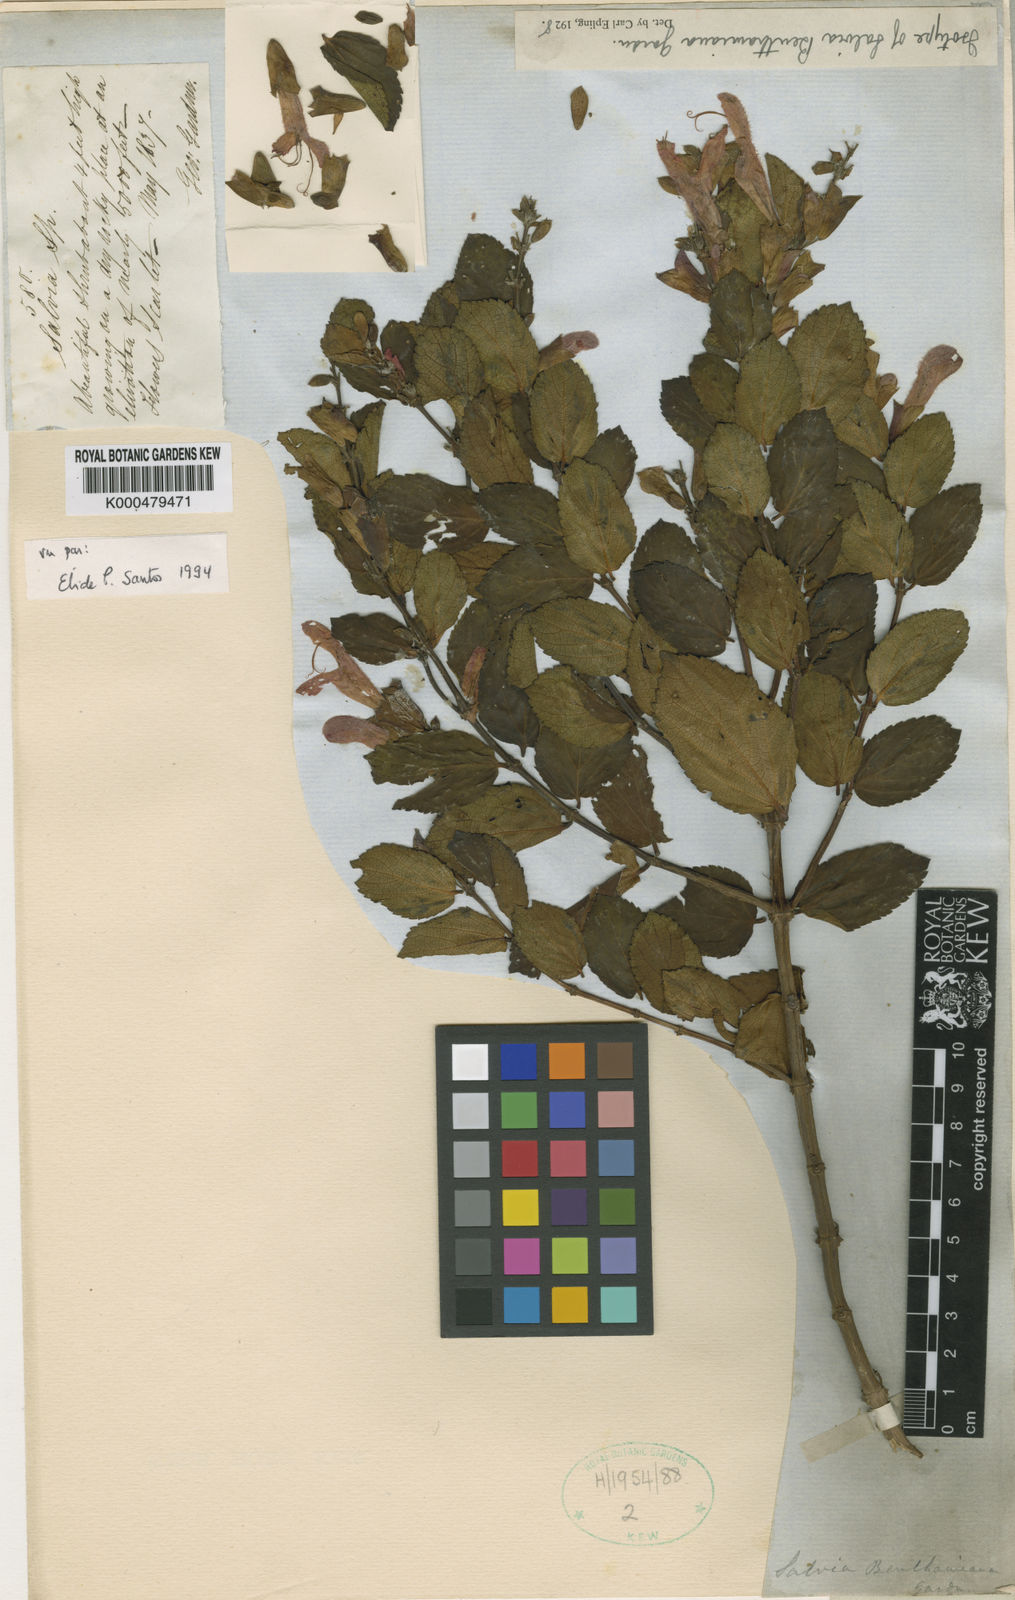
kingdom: Plantae
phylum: Tracheophyta
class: Magnoliopsida
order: Lamiales
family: Lamiaceae
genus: Salvia
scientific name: Salvia benthamiana
